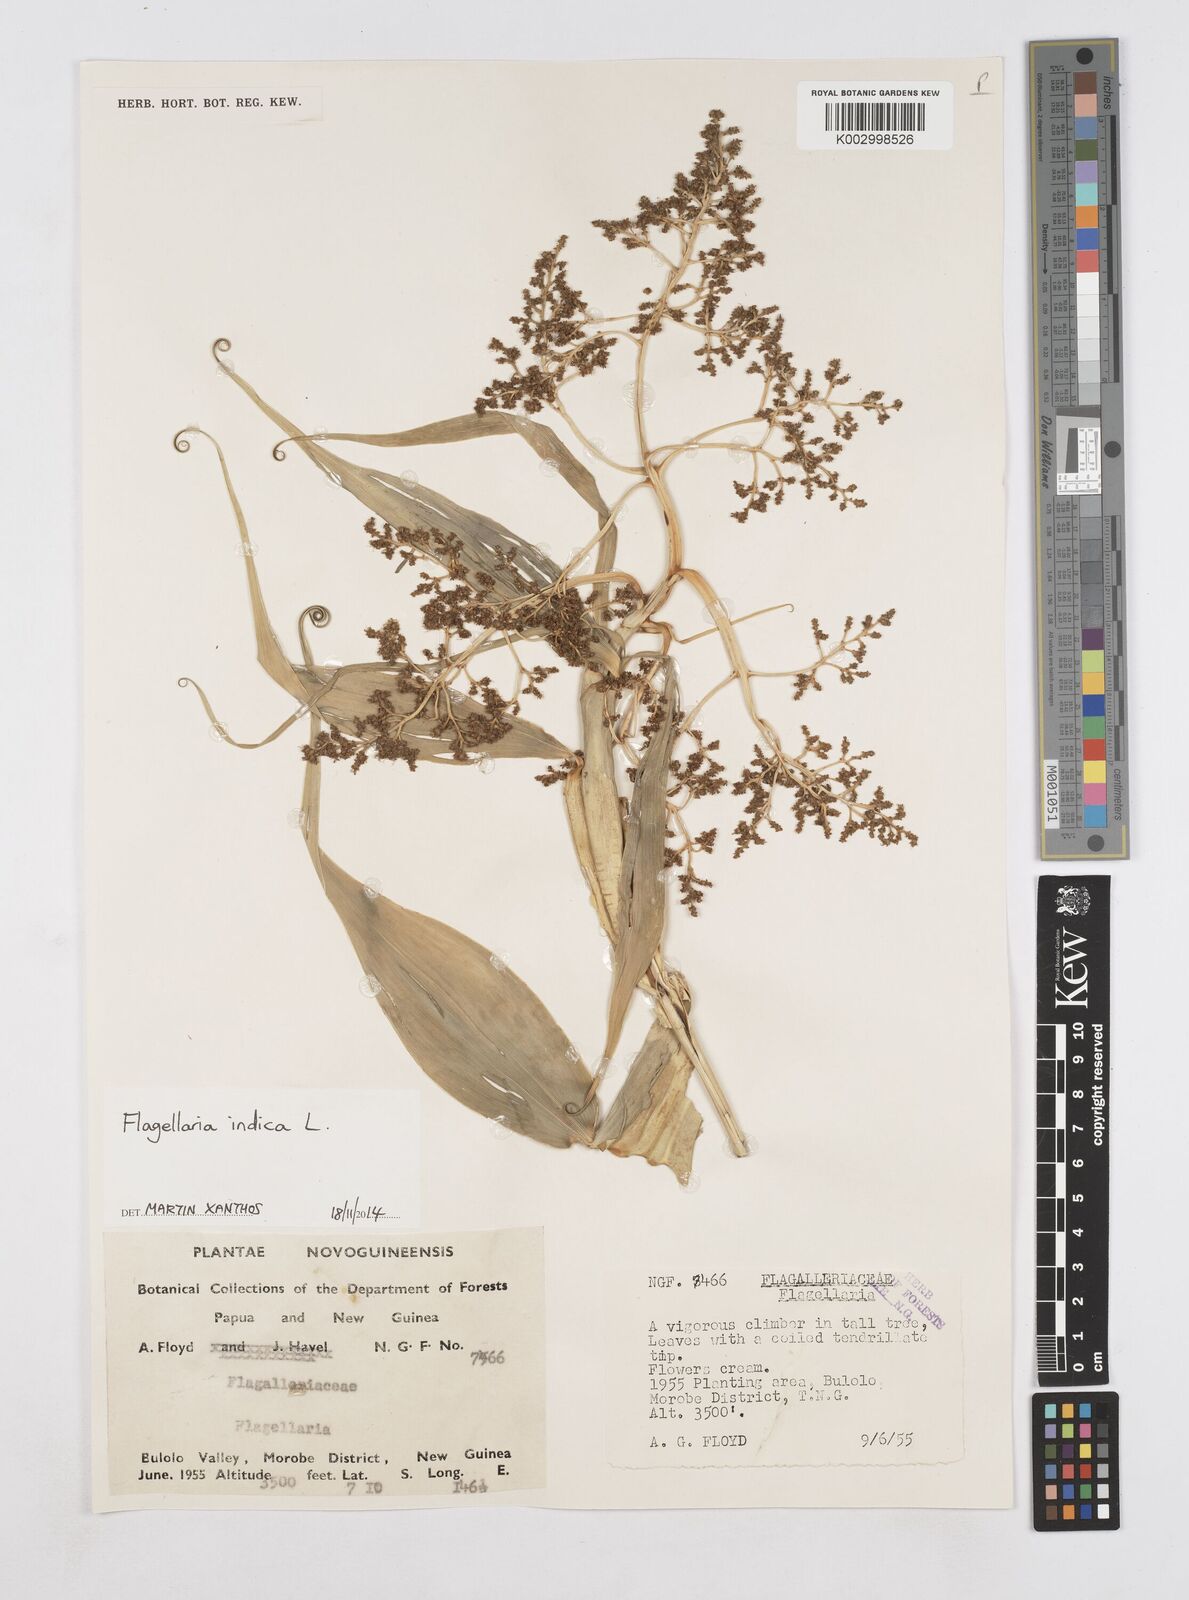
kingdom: Plantae
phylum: Tracheophyta
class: Liliopsida
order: Poales
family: Flagellariaceae
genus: Flagellaria
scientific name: Flagellaria indica
